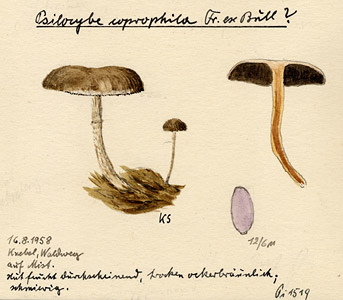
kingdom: Fungi
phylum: Basidiomycota
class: Agaricomycetes
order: Agaricales
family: Strophariaceae
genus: Deconica
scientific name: Deconica coprophila
